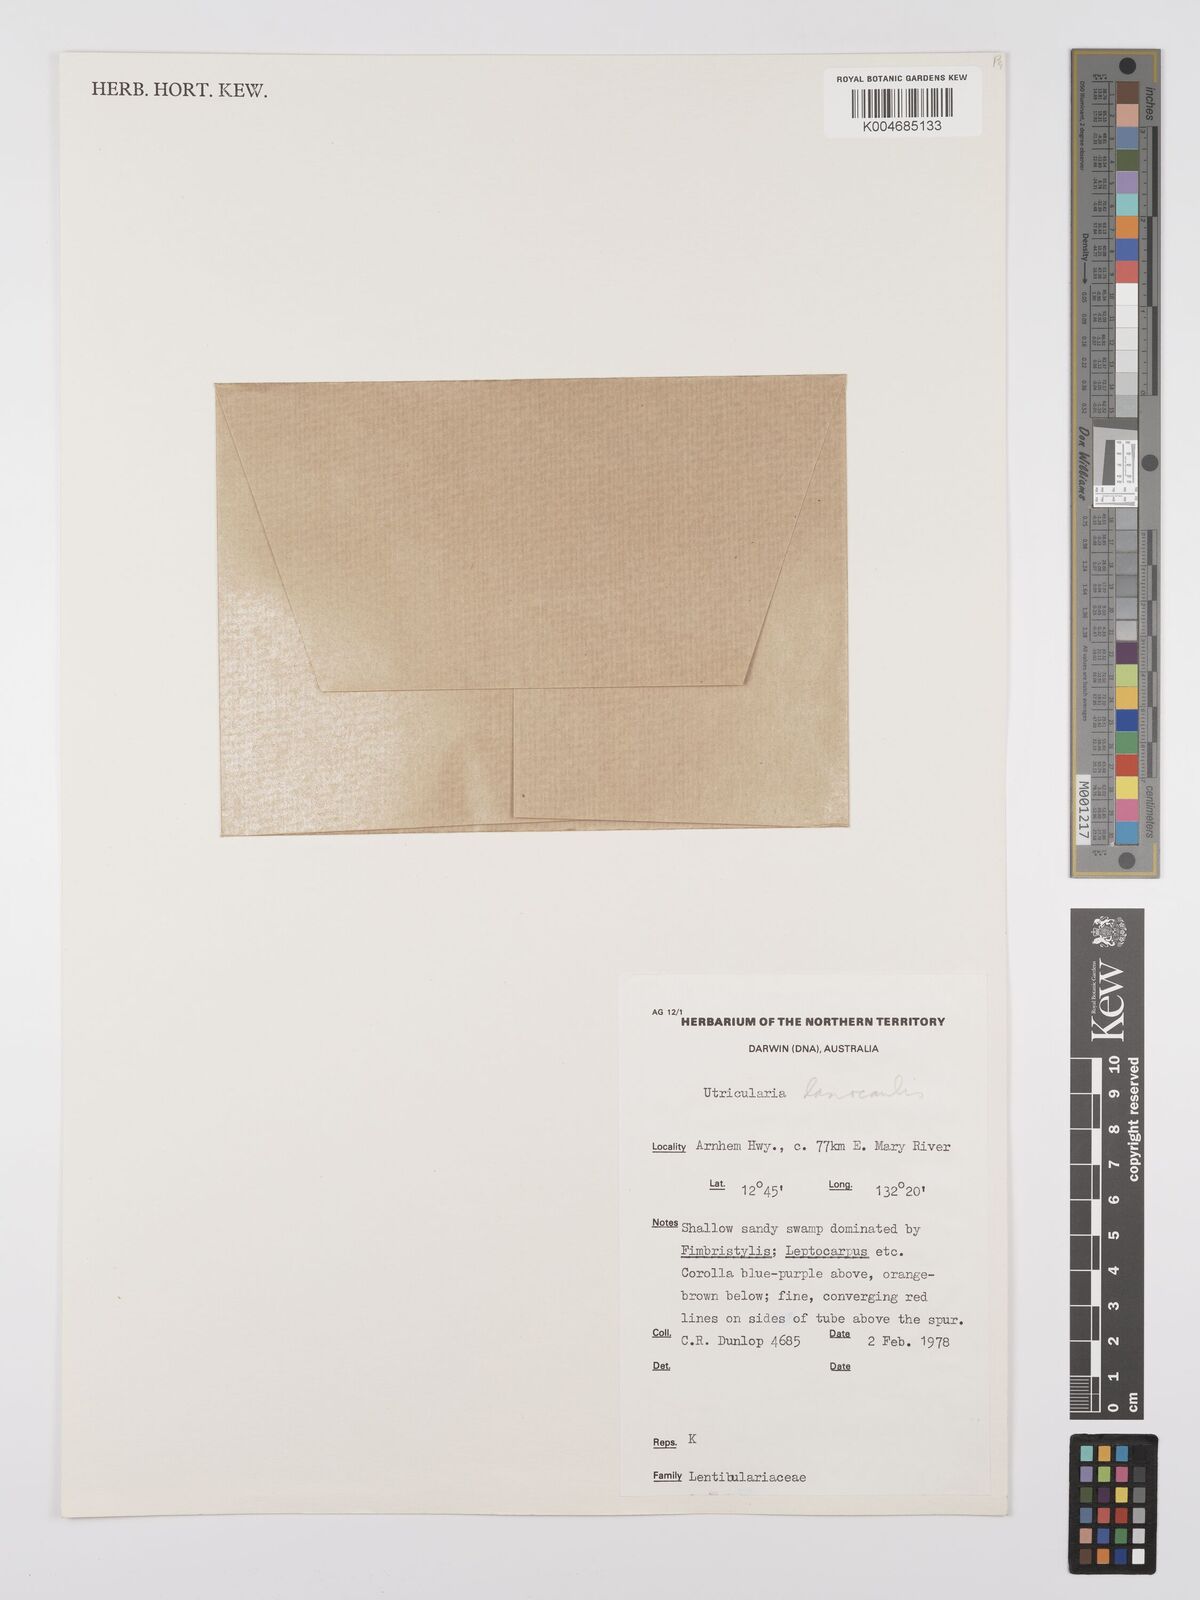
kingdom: Plantae
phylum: Tracheophyta
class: Magnoliopsida
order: Lamiales
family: Lentibulariaceae
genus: Utricularia
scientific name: Utricularia lasiocaulis
